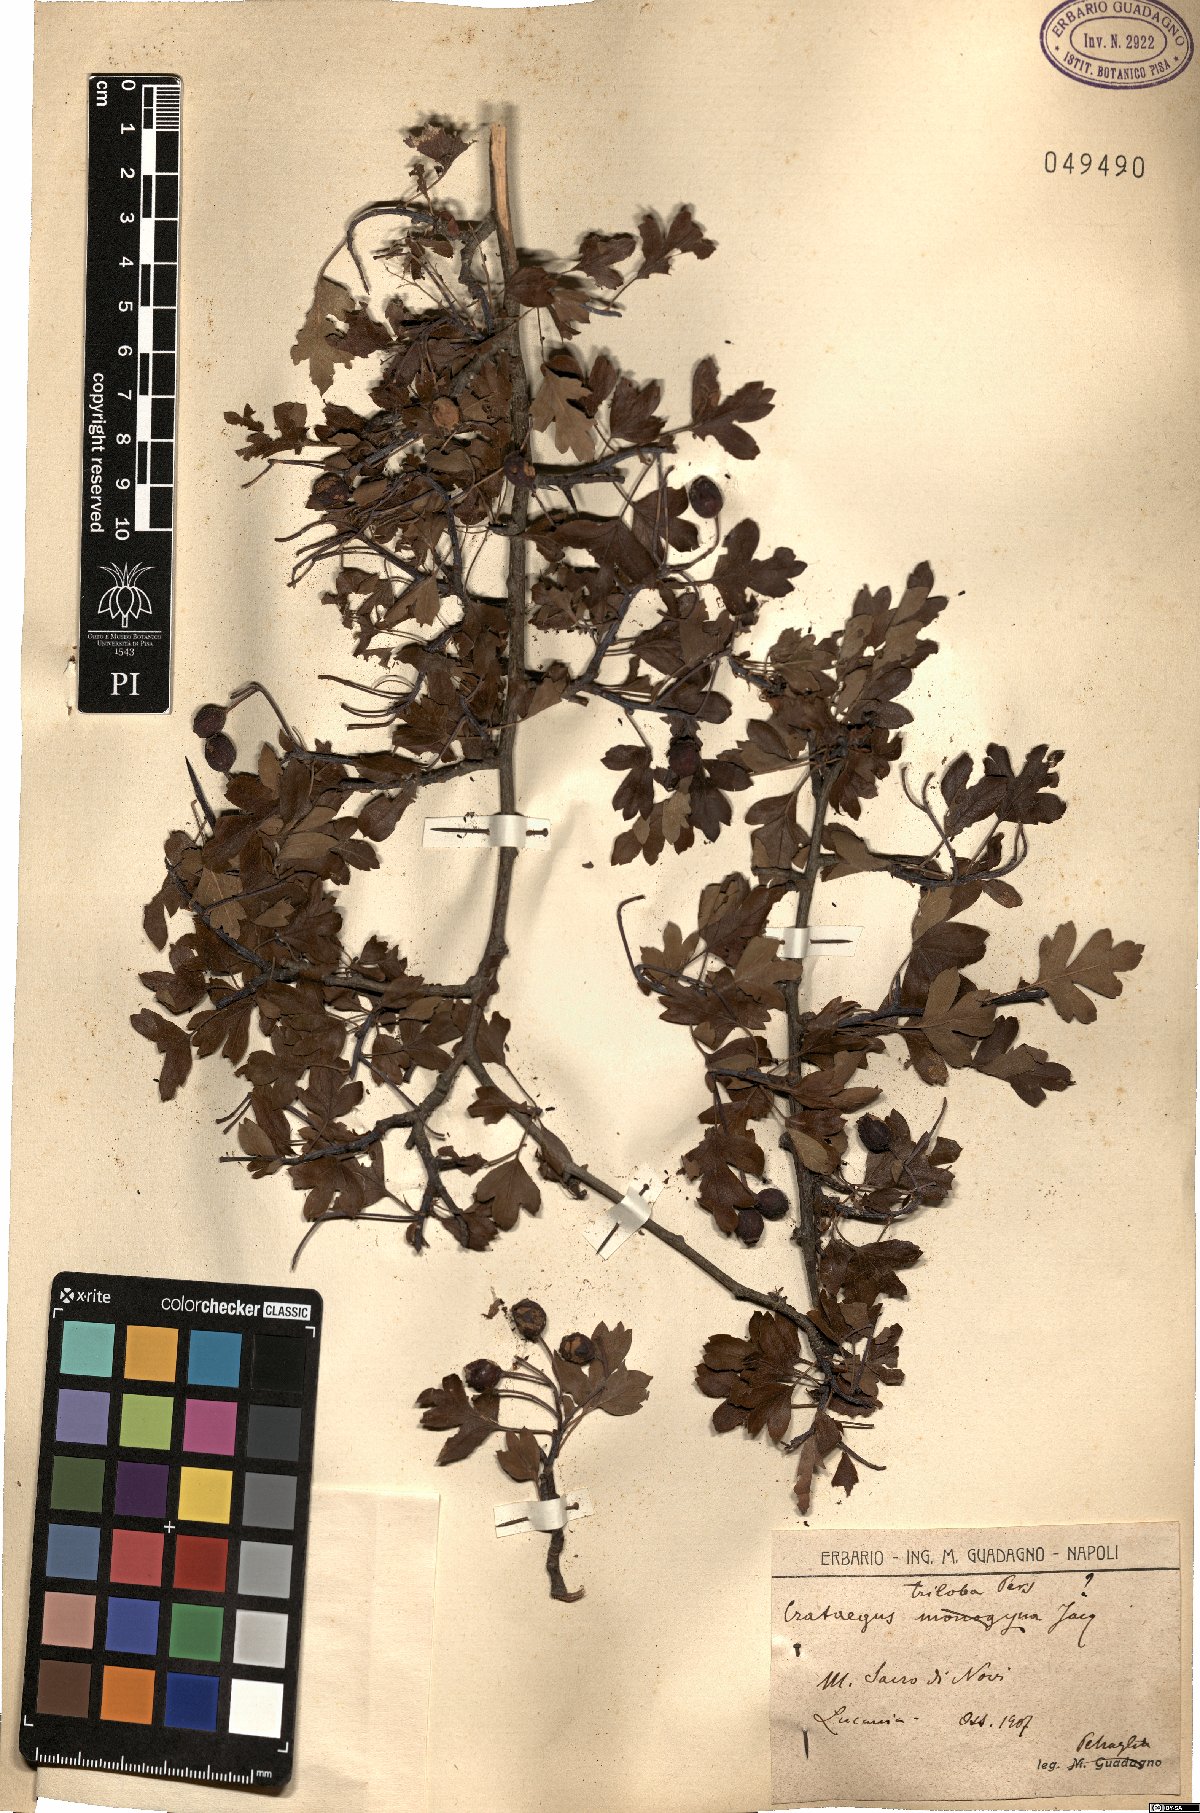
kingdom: Plantae
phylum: Tracheophyta
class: Magnoliopsida
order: Rosales
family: Rosaceae
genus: Crataegus
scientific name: Crataegus pycnoloba
